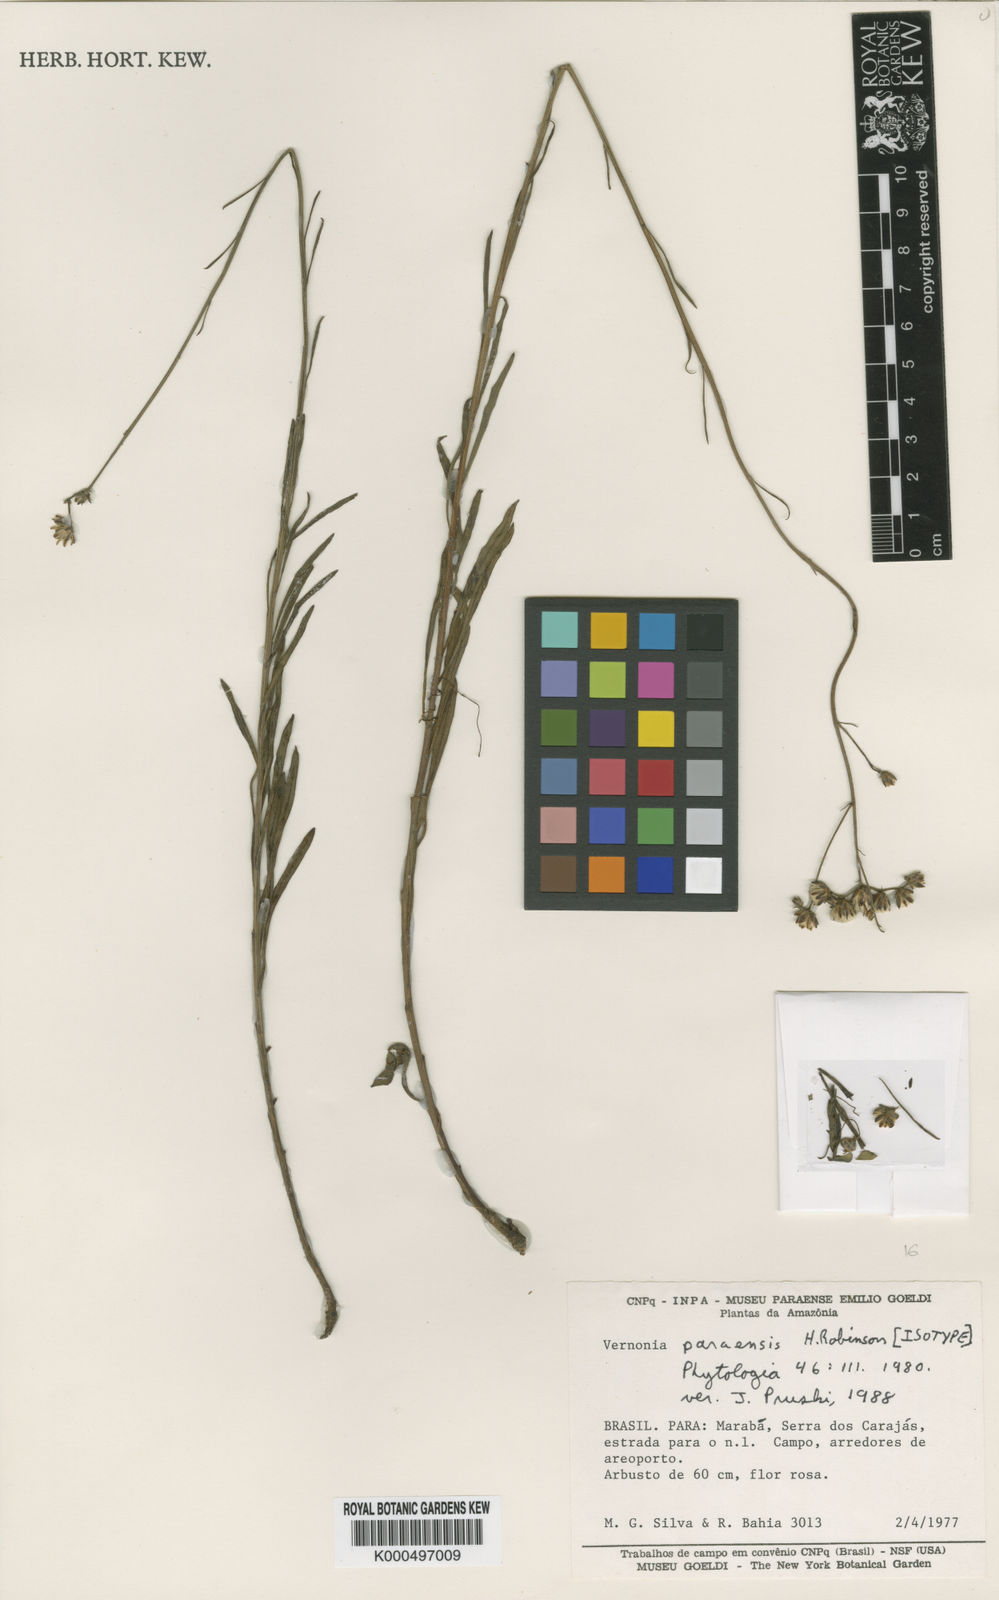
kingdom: Plantae
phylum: Tracheophyta
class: Magnoliopsida
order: Asterales
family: Asteraceae
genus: Lepidaploa
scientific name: Lepidaploa paraensis
